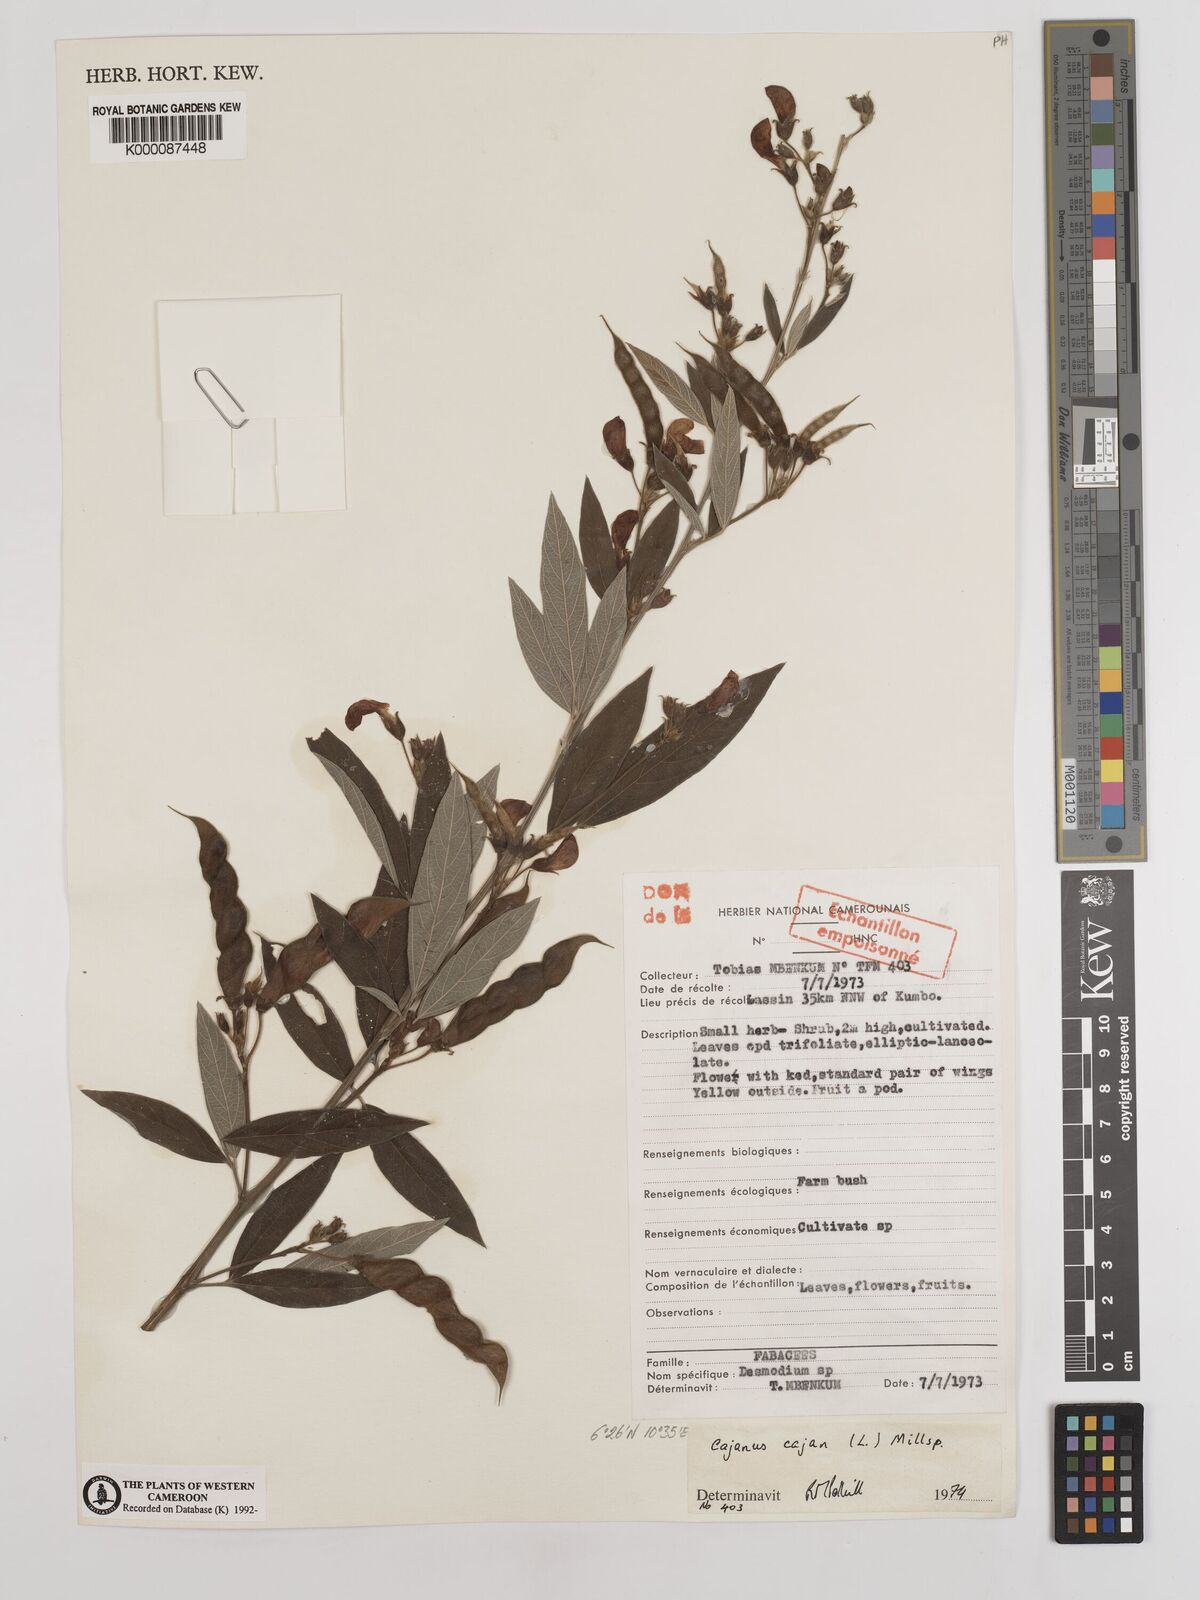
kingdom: Plantae
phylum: Tracheophyta
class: Magnoliopsida
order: Fabales
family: Fabaceae
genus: Cajanus
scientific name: Cajanus
